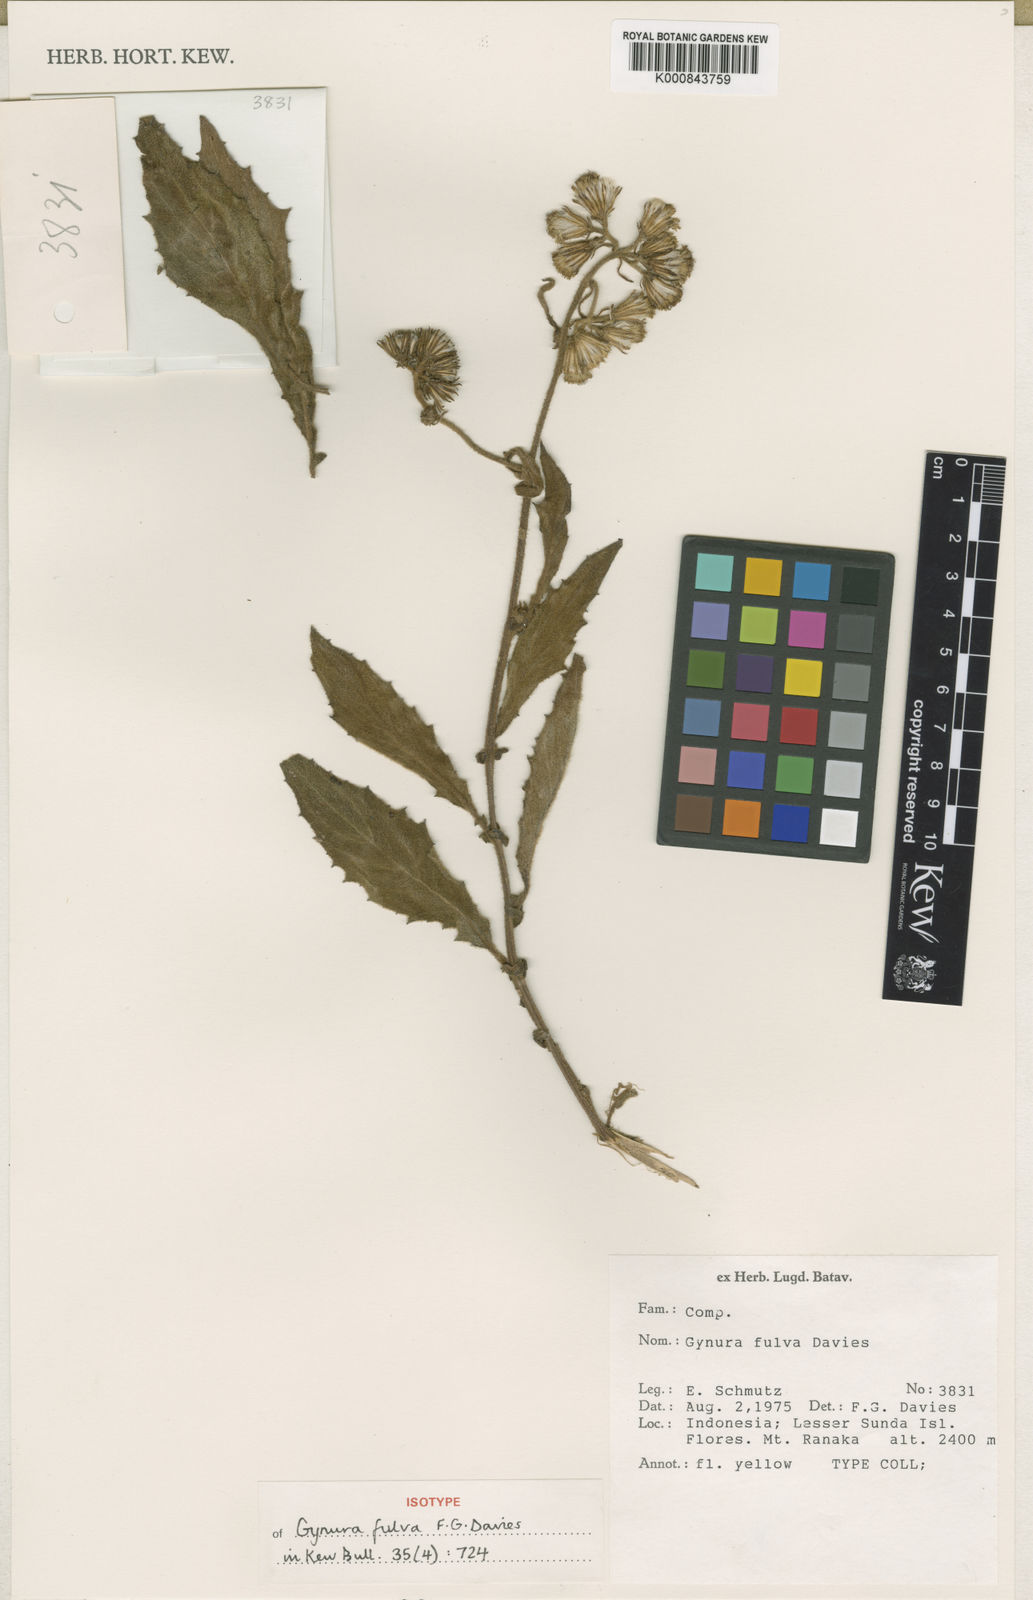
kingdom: Plantae
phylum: Tracheophyta
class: Magnoliopsida
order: Asterales
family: Asteraceae
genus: Gynura
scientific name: Gynura fulva
